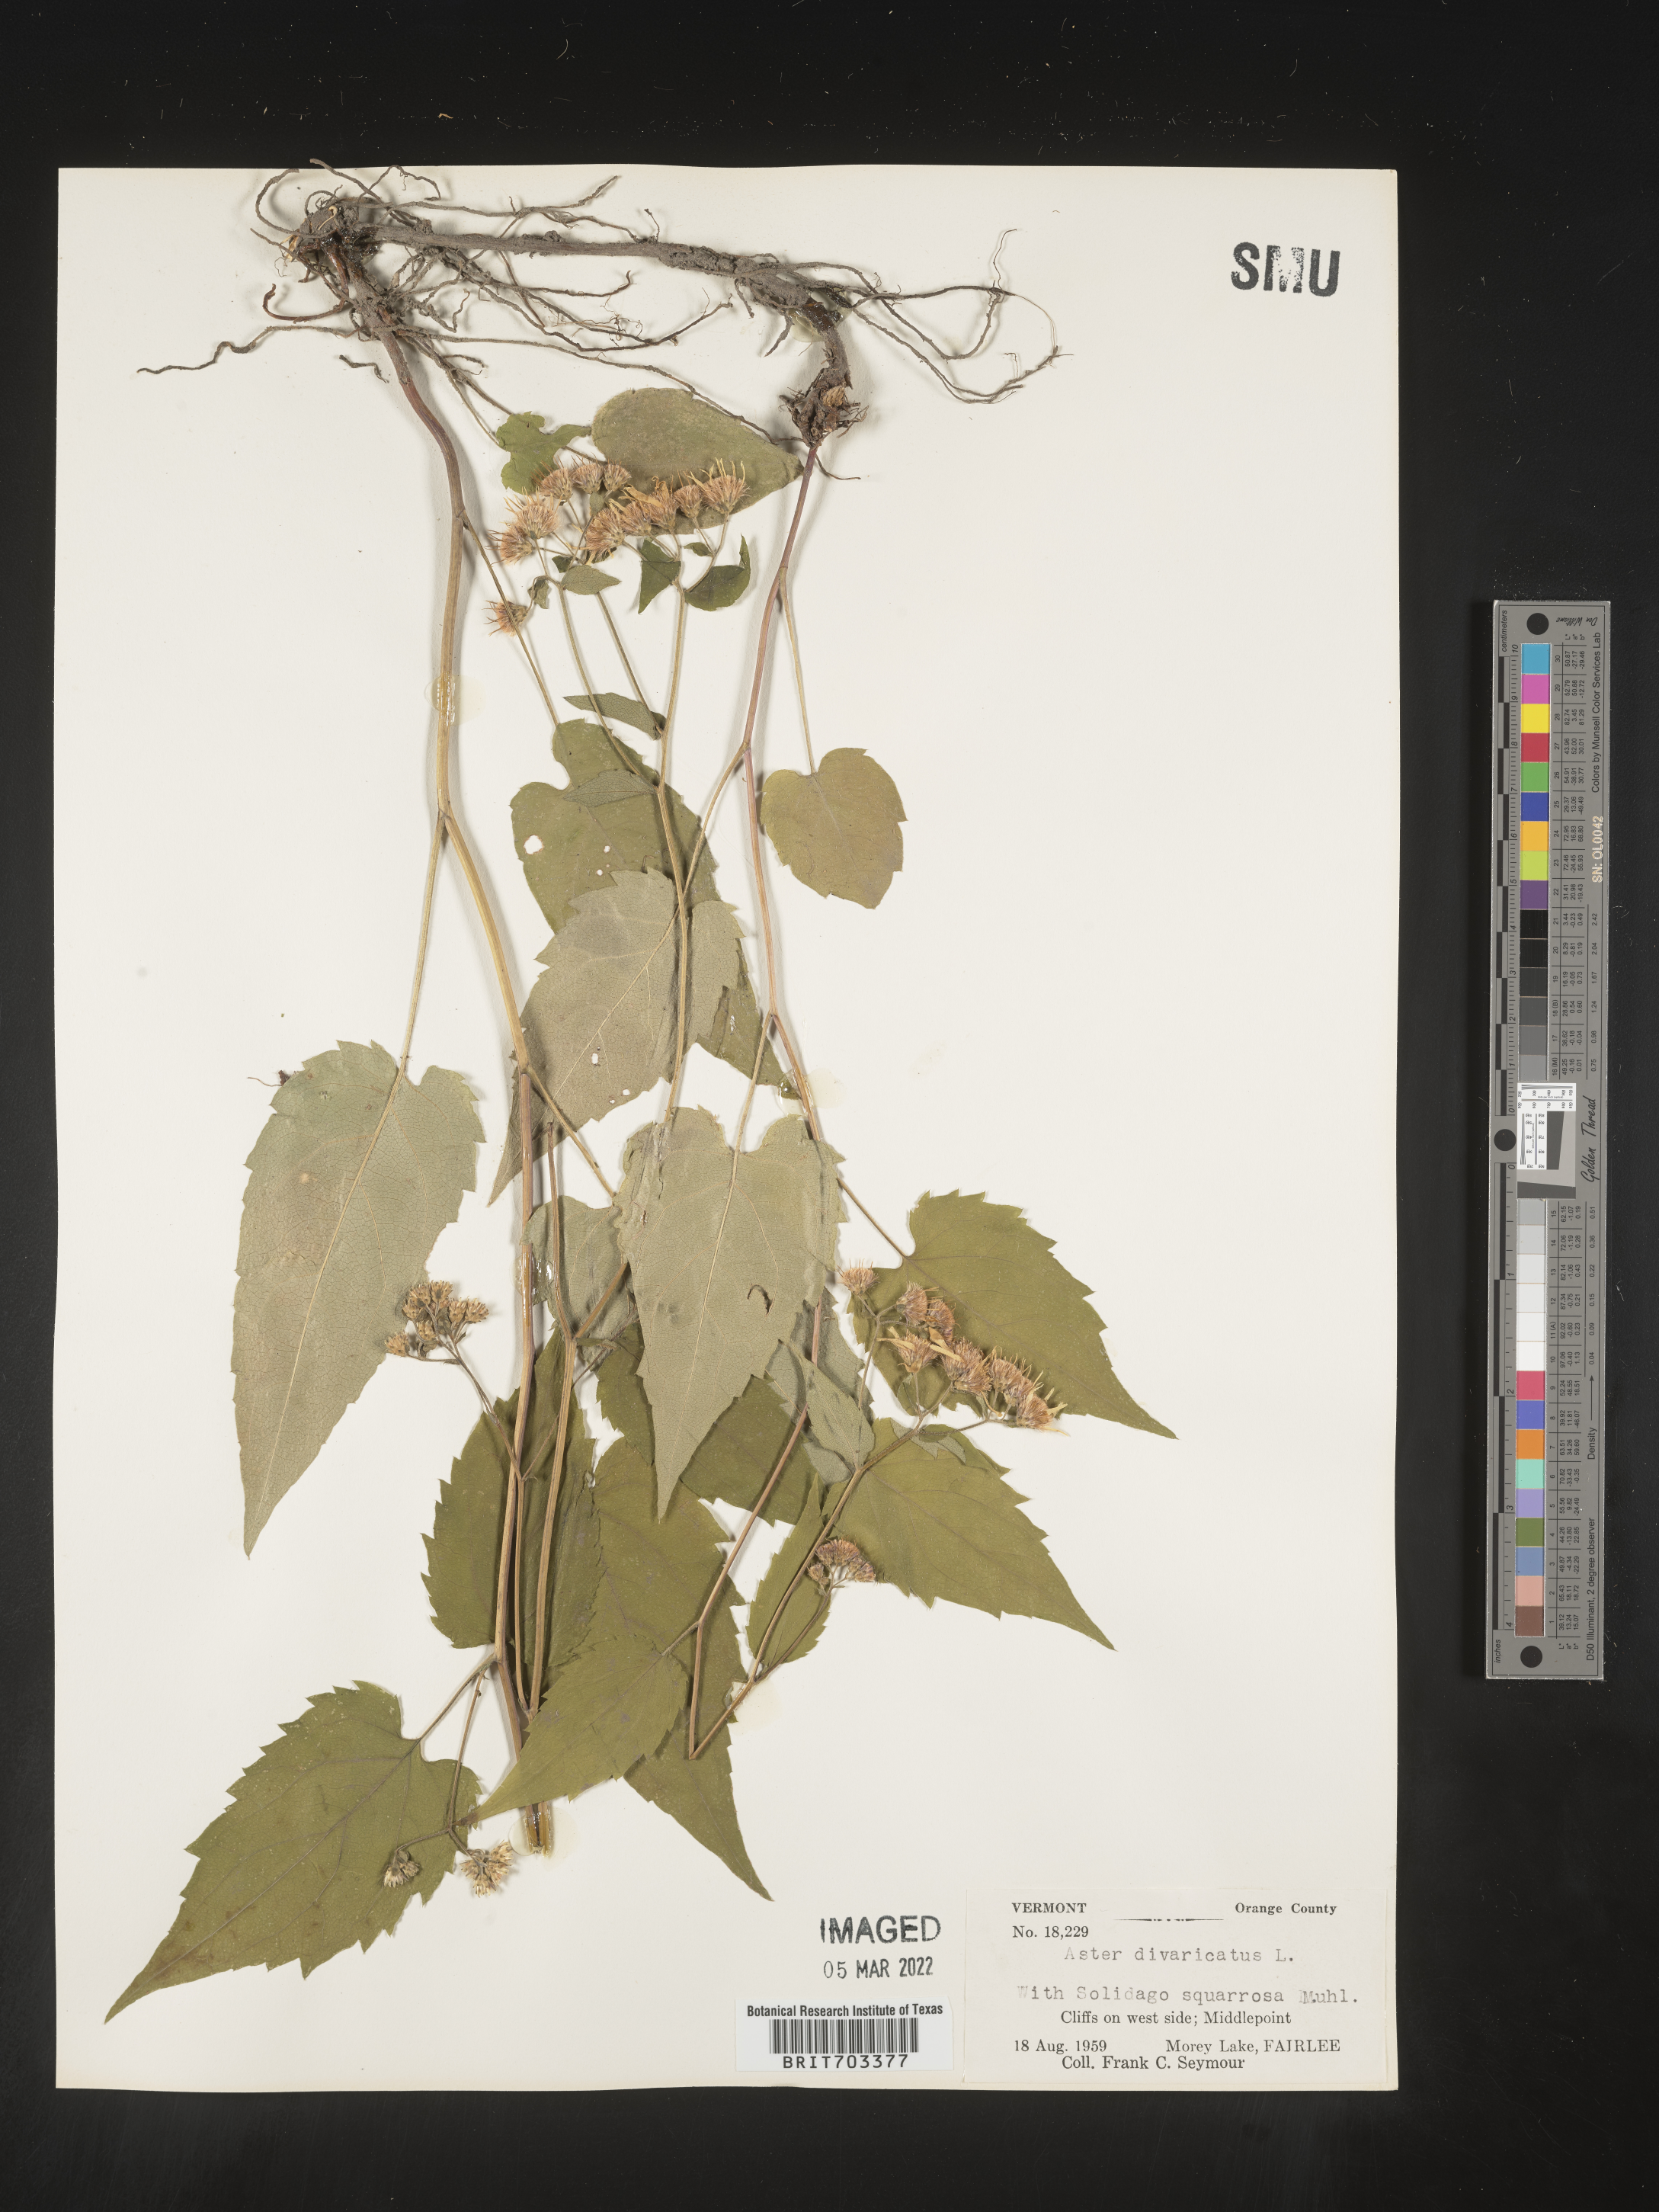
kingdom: Plantae
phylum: Tracheophyta
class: Magnoliopsida
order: Asterales
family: Asteraceae
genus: Eurybia
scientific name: Eurybia divaricata
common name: White wood aster
